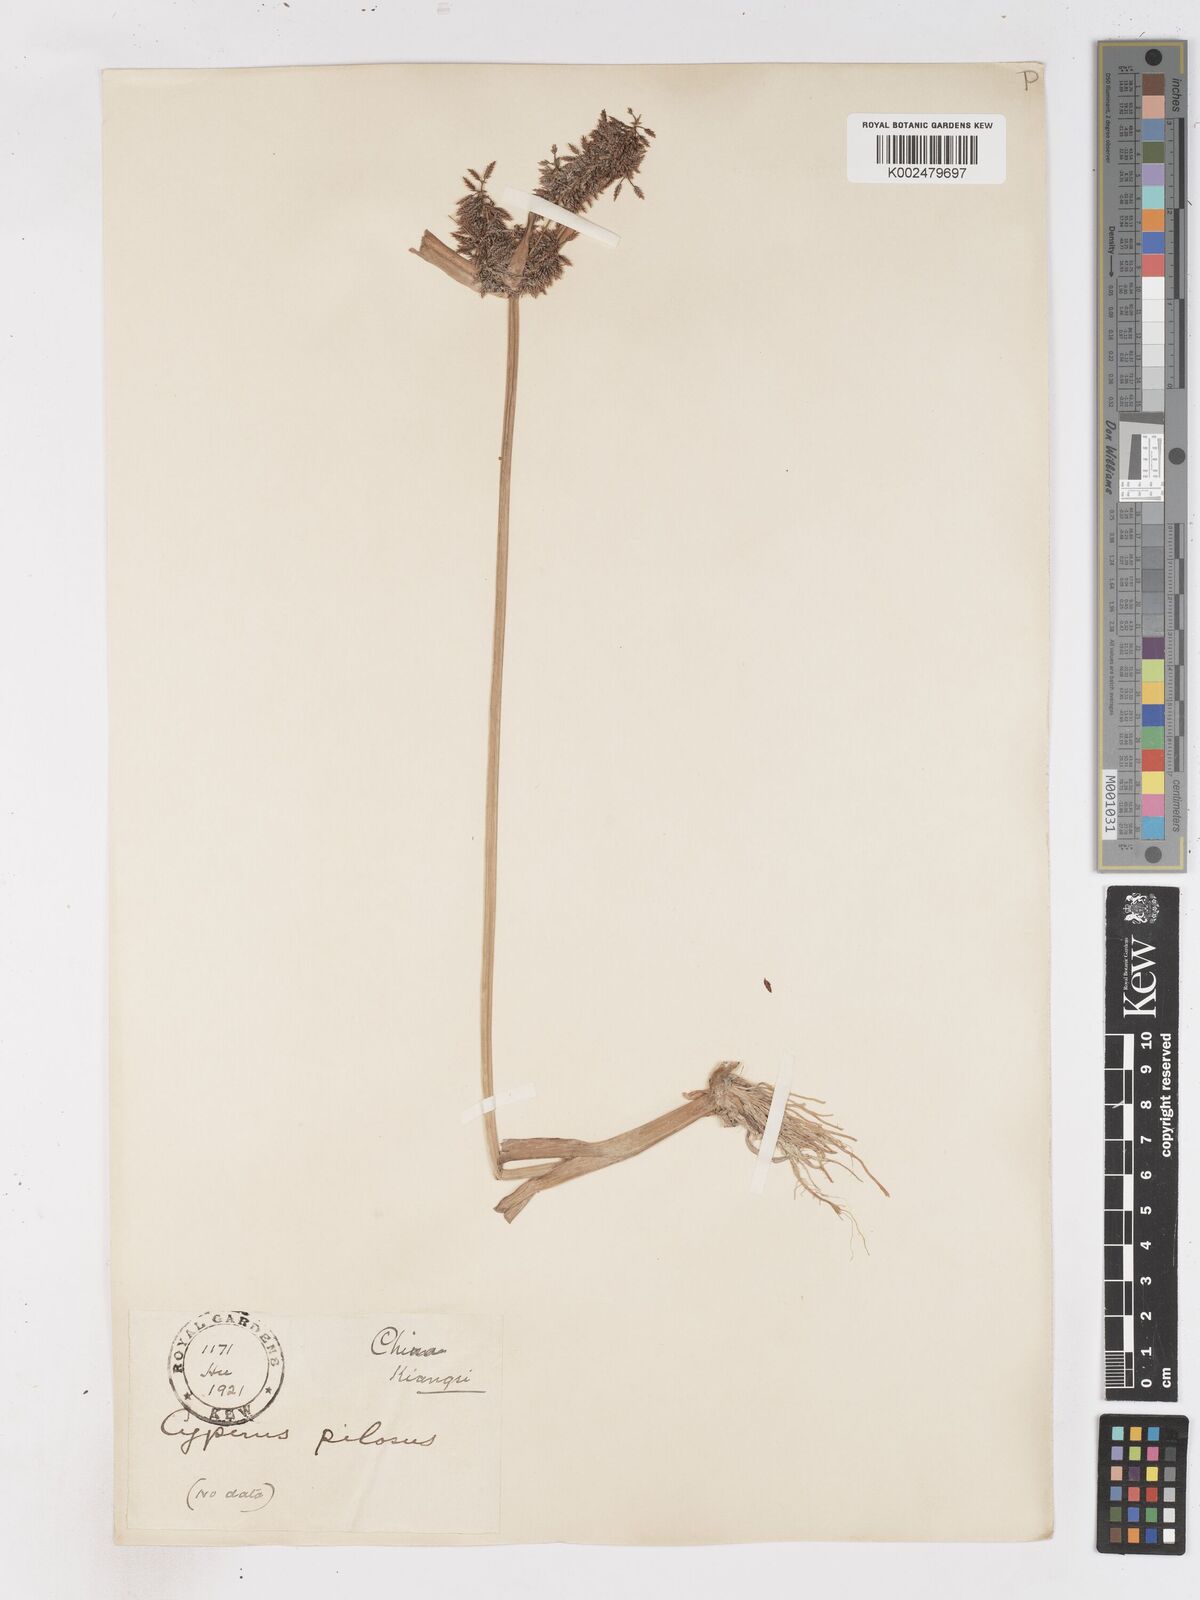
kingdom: Plantae
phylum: Tracheophyta
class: Liliopsida
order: Poales
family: Cyperaceae
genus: Cyperus
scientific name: Cyperus pilosus
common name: Fuzzy flatsedge
